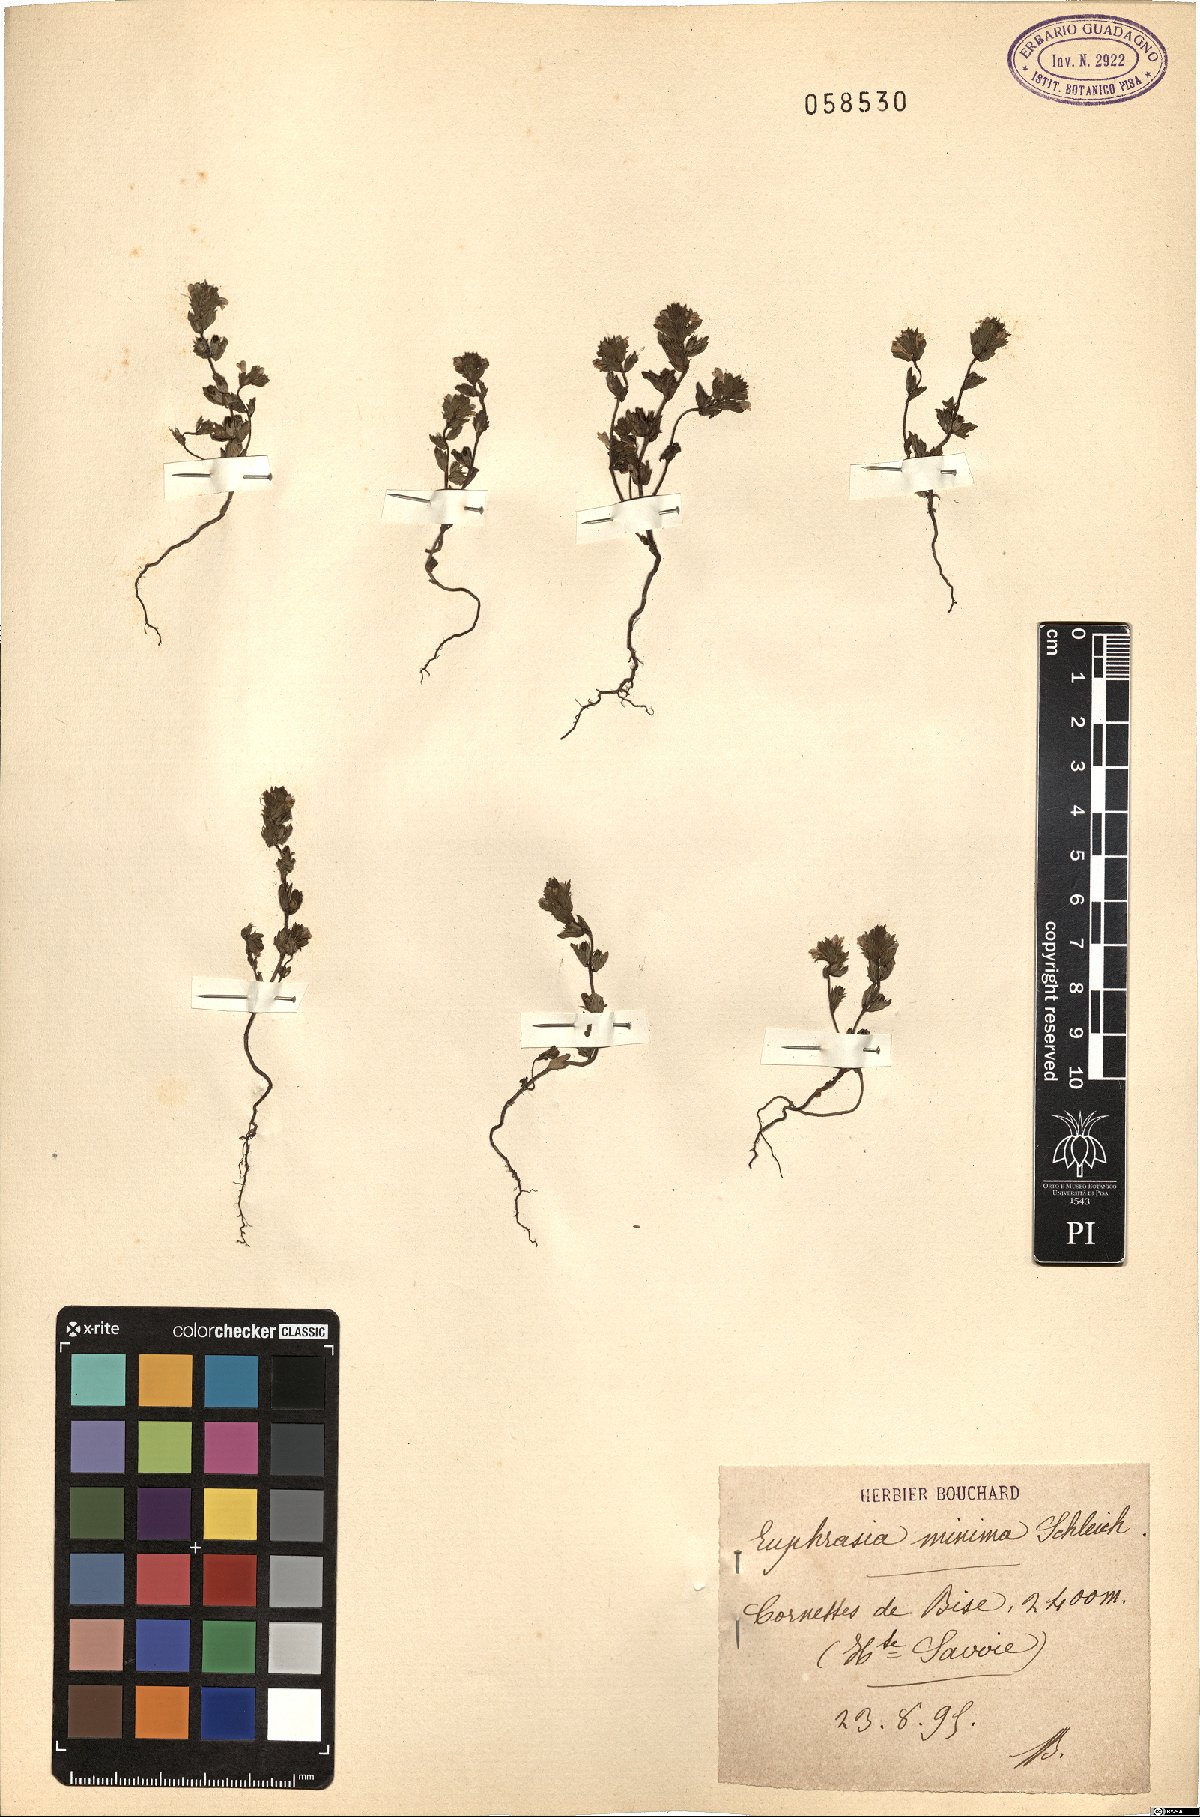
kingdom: Plantae
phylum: Tracheophyta
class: Magnoliopsida
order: Lamiales
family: Orobanchaceae
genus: Euphrasia
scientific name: Euphrasia minima
